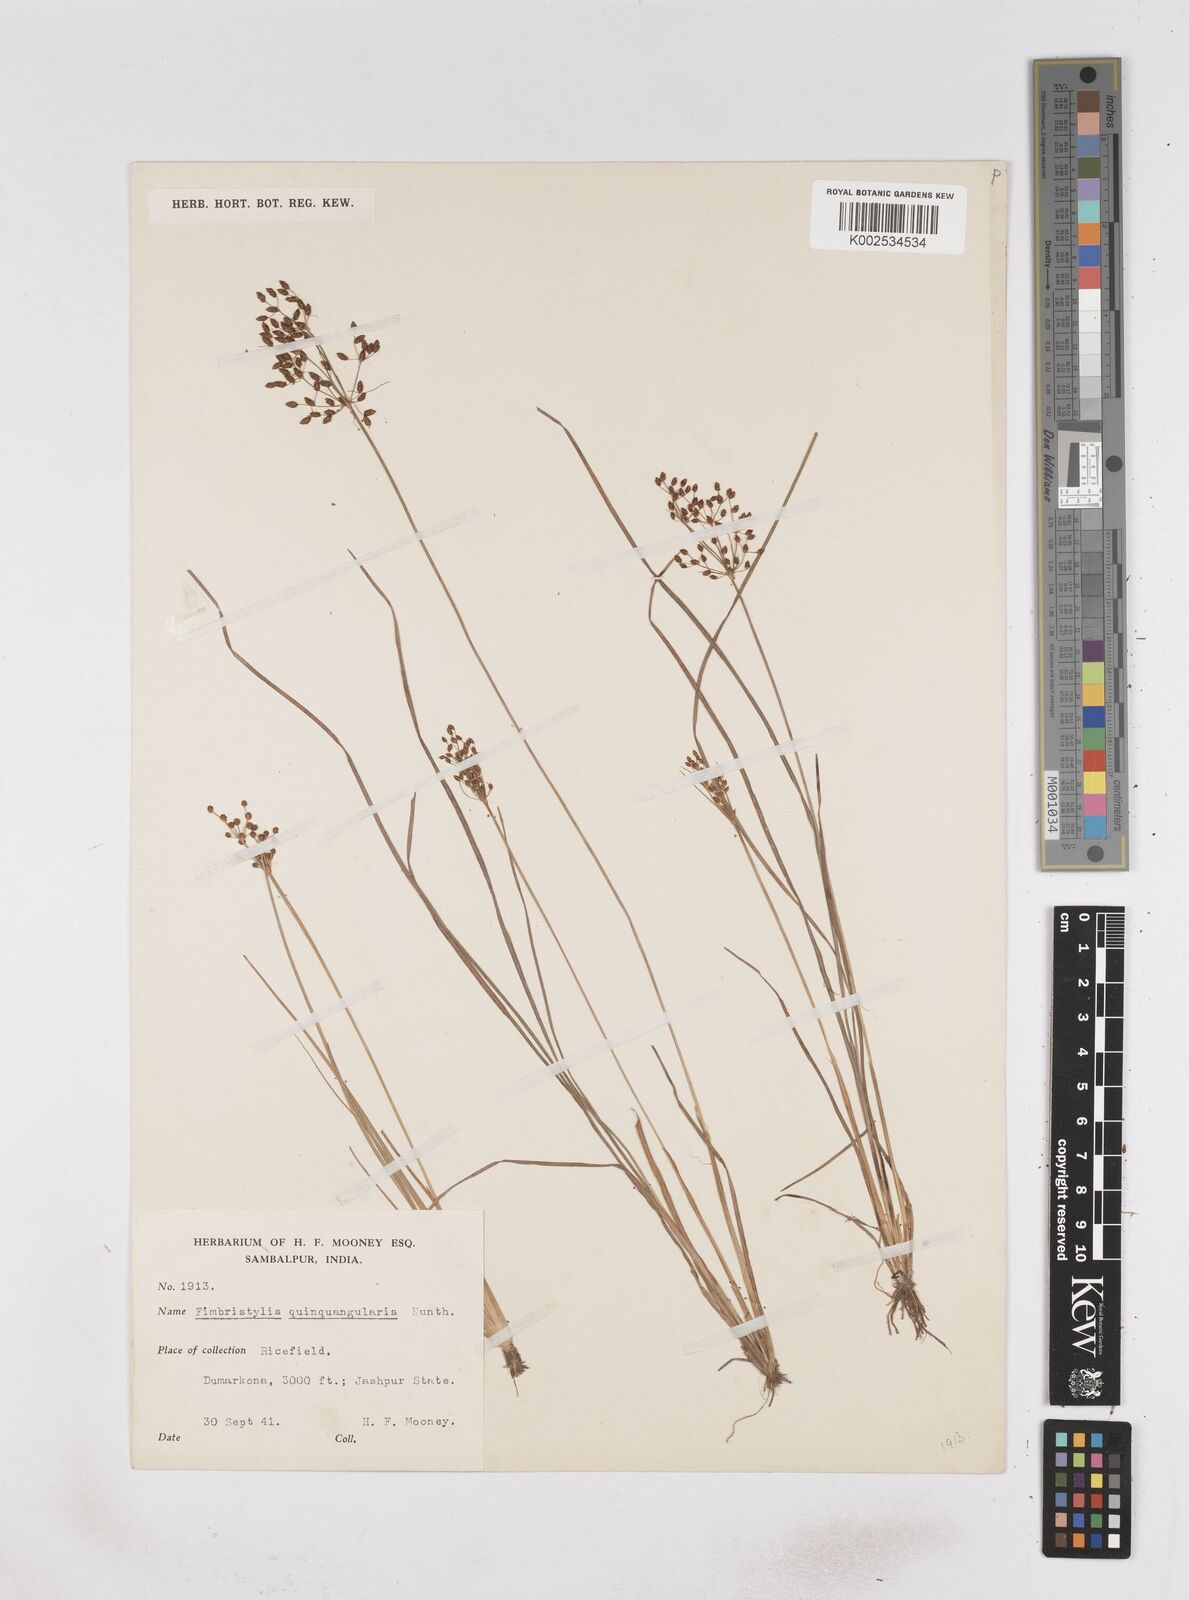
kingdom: Plantae
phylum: Tracheophyta
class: Liliopsida
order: Poales
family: Cyperaceae
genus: Fimbristylis
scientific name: Fimbristylis quinquangularis
